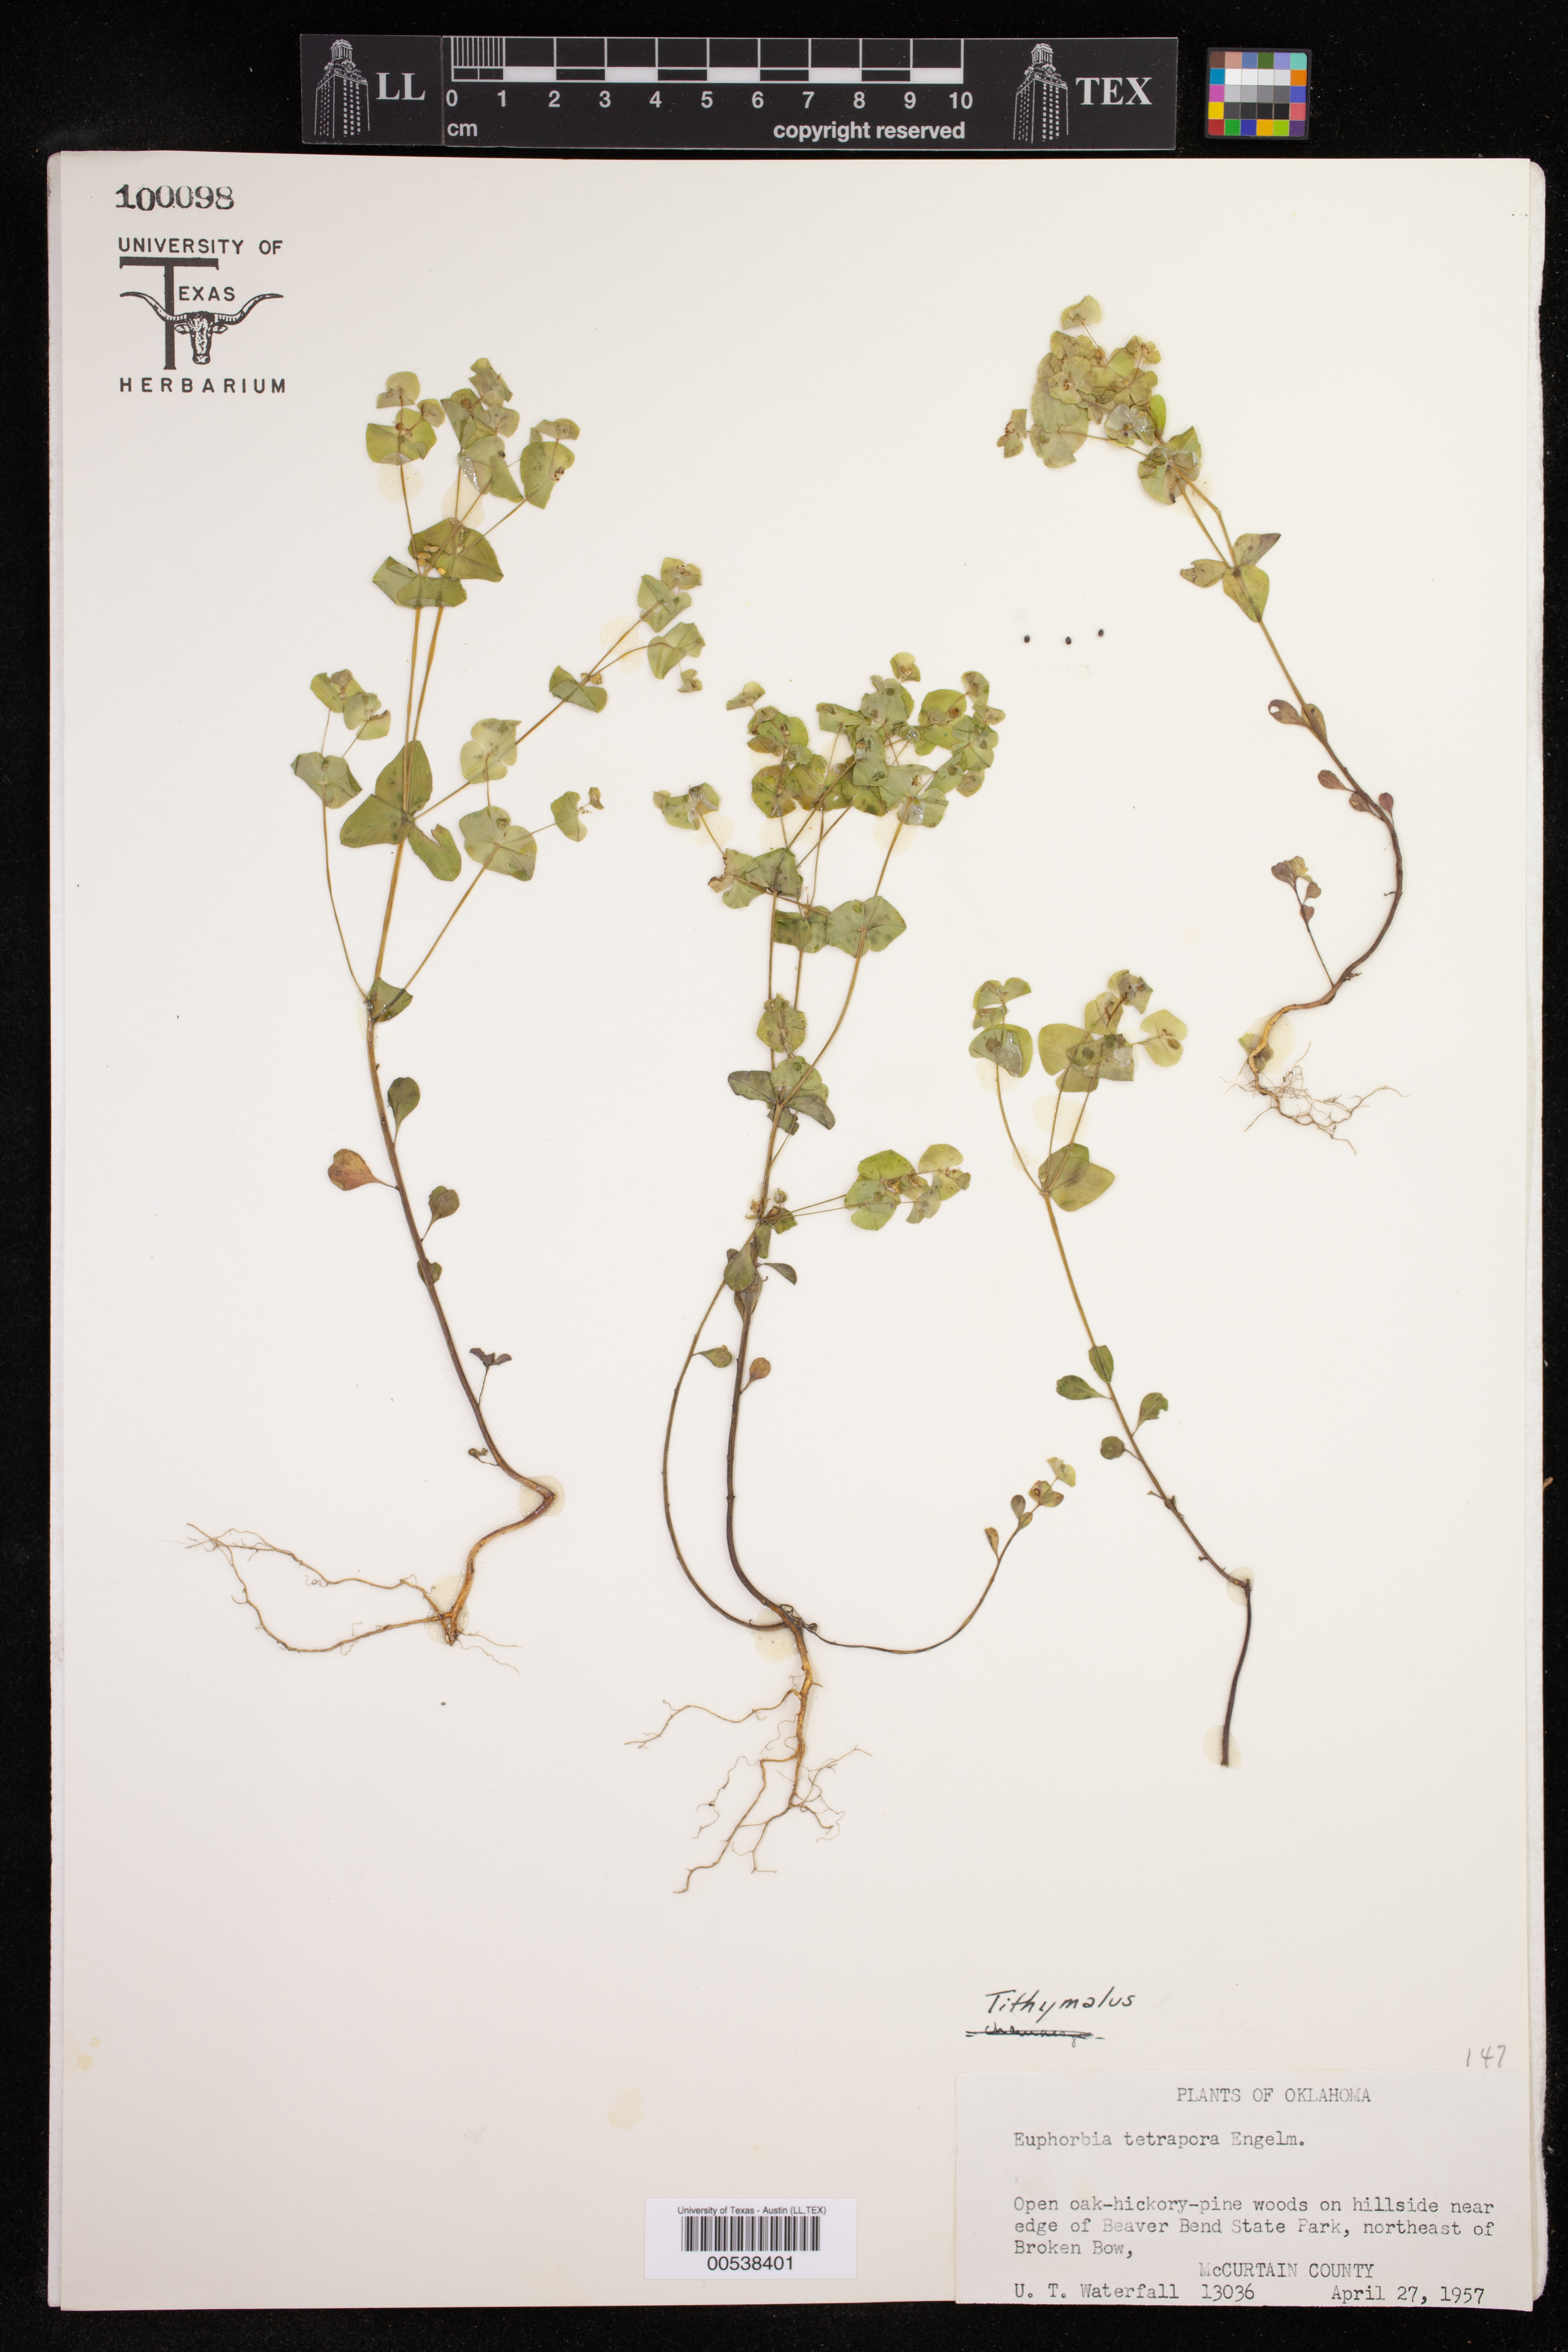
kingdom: Plantae
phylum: Tracheophyta
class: Magnoliopsida
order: Malpighiales
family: Euphorbiaceae
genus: Euphorbia
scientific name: Euphorbia tetrapora
